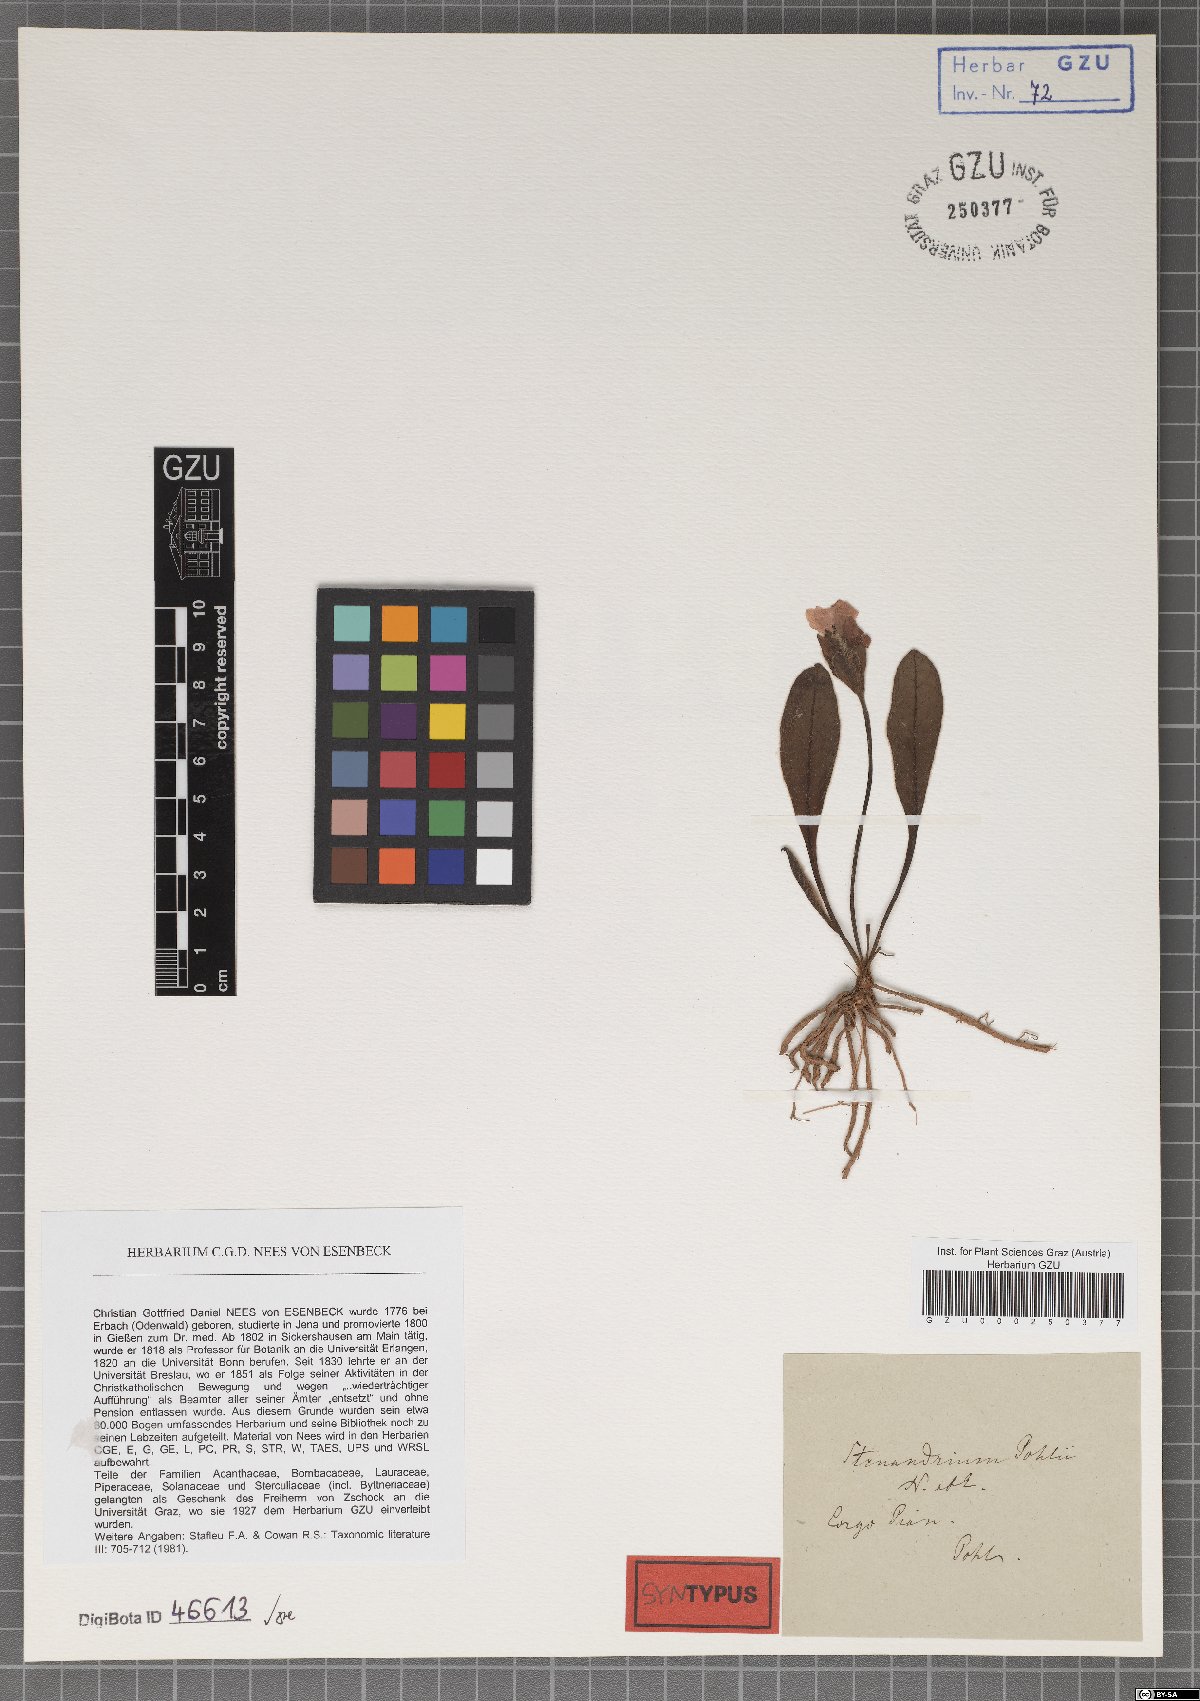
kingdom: Plantae
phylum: Tracheophyta
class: Magnoliopsida
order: Lamiales
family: Acanthaceae
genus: Stenandrium
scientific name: Stenandrium pohlii
